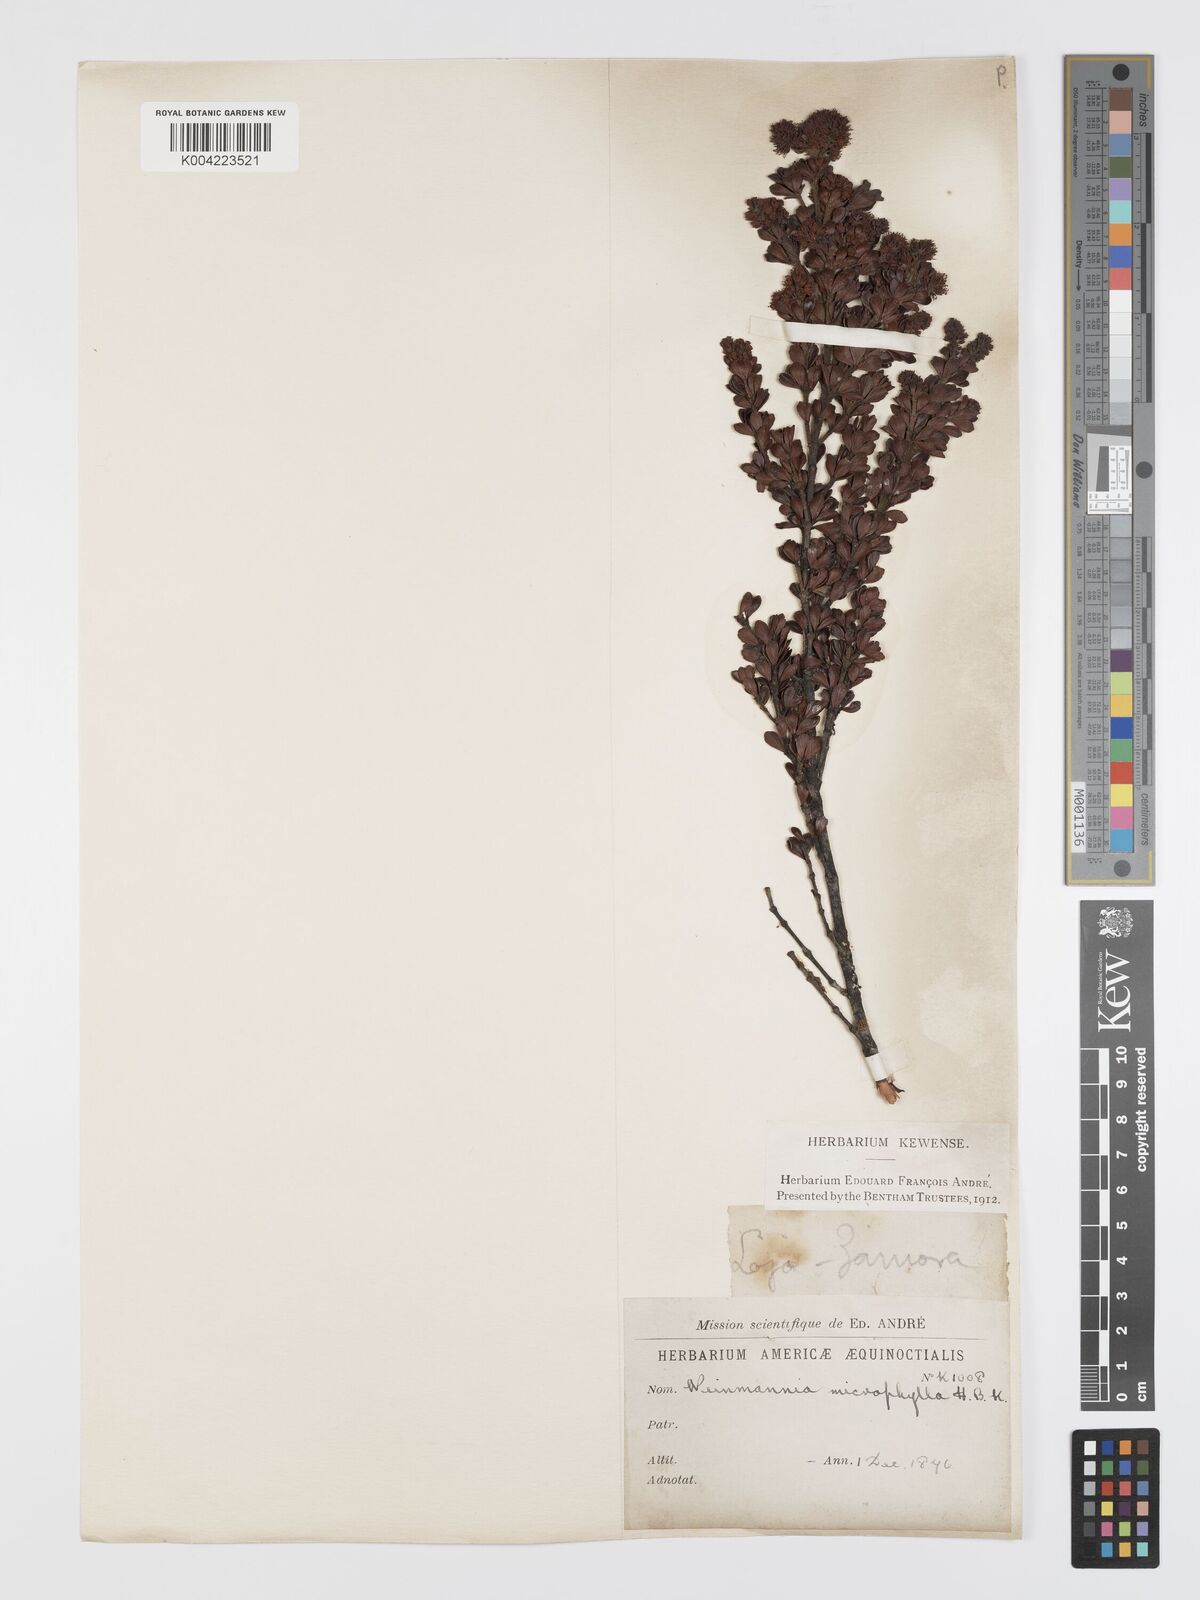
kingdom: Plantae
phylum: Tracheophyta
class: Magnoliopsida
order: Oxalidales
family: Cunoniaceae
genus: Weinmannia
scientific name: Weinmannia microphylla
